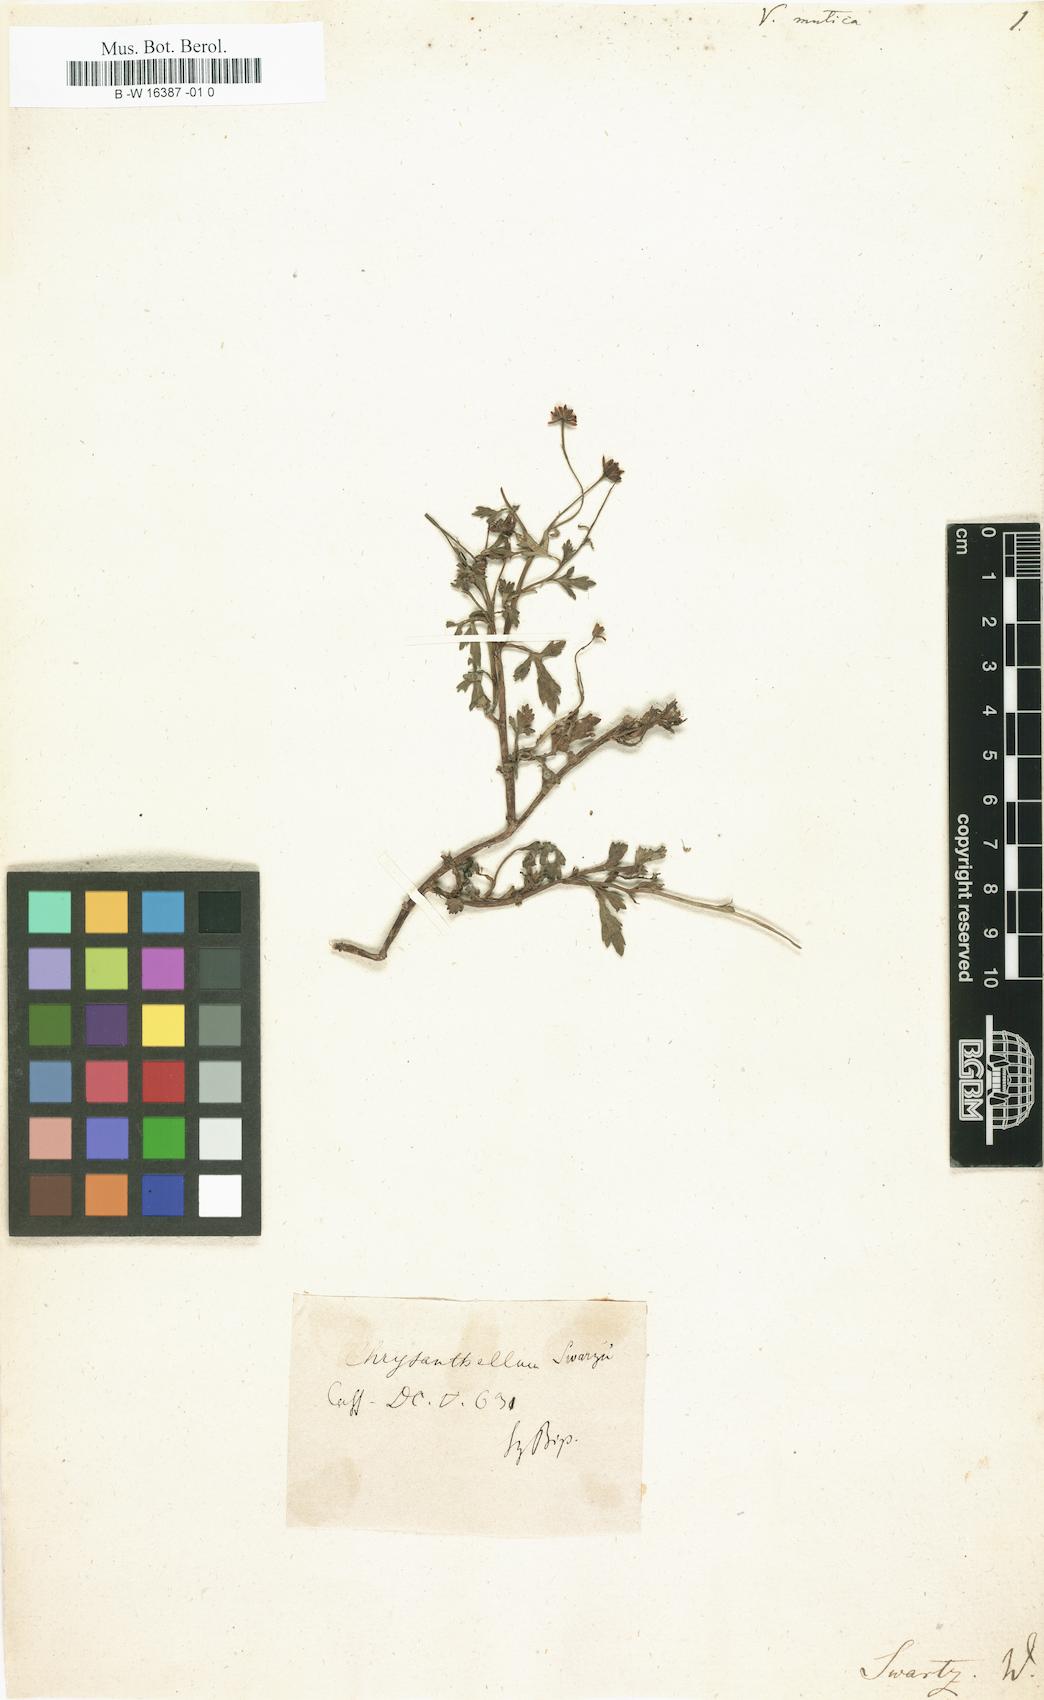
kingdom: Plantae
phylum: Tracheophyta
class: Magnoliopsida
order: Asterales
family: Asteraceae
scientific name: Asteraceae
